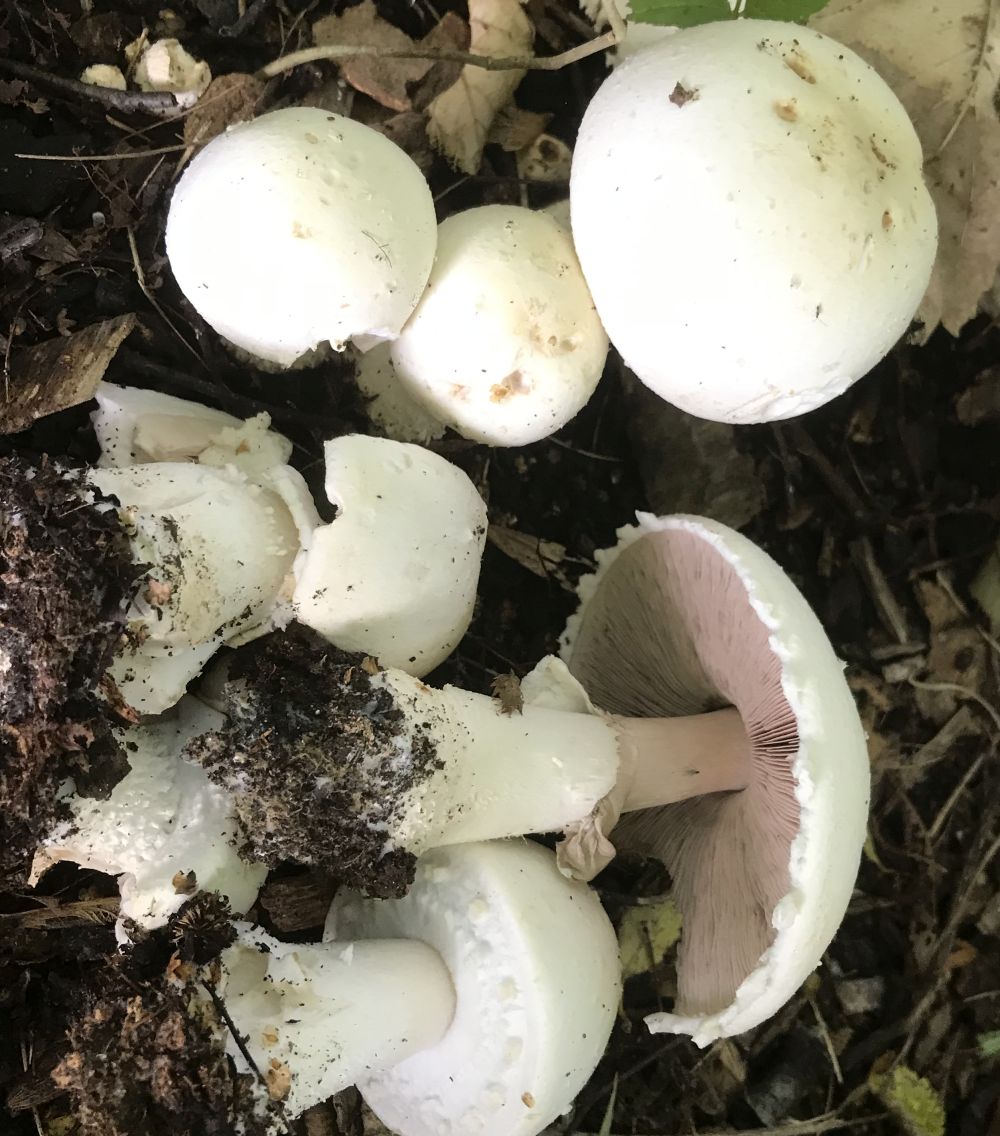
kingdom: Fungi
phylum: Basidiomycota
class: Agaricomycetes
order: Agaricales
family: Agaricaceae
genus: Agaricus
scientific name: Agaricus arvensis
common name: ager-champignon
